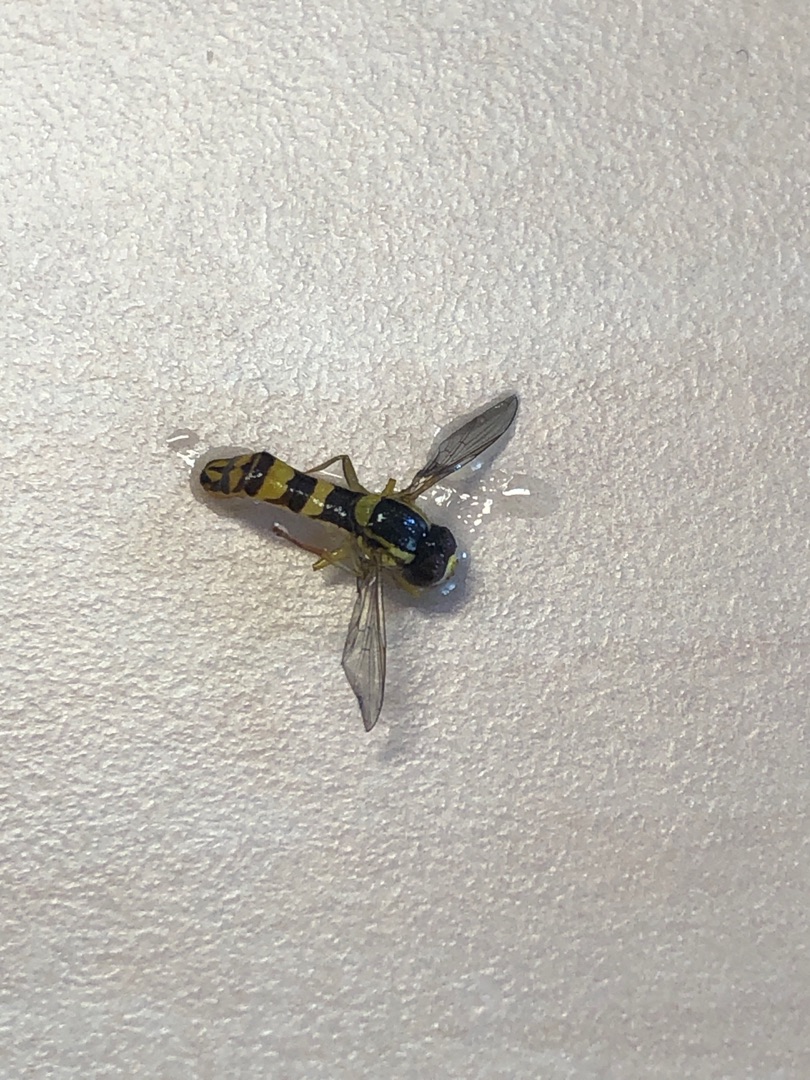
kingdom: Animalia
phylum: Arthropoda
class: Insecta
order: Diptera
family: Syrphidae
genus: Sphaerophoria
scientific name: Sphaerophoria scripta
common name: Almindelig kuglebærerflue
